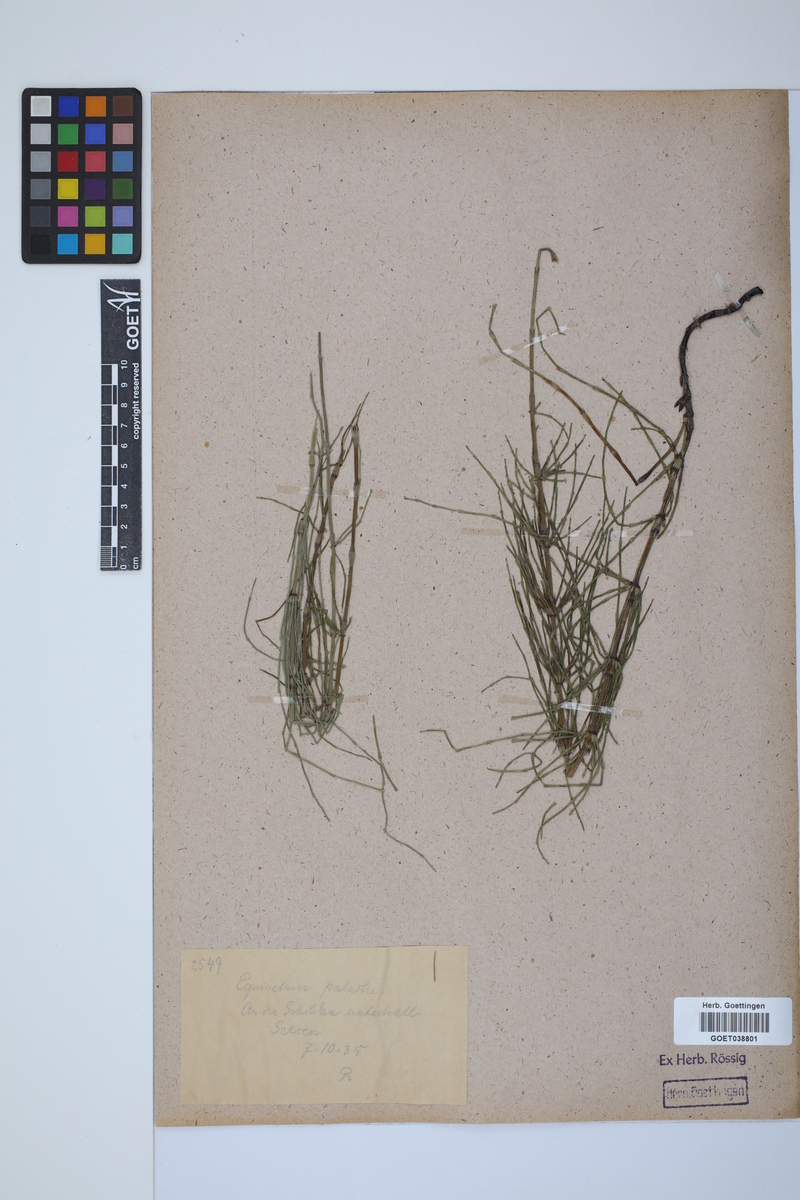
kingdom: Plantae
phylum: Tracheophyta
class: Polypodiopsida
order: Equisetales
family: Equisetaceae
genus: Equisetum
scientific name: Equisetum palustre
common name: Marsh horsetail
